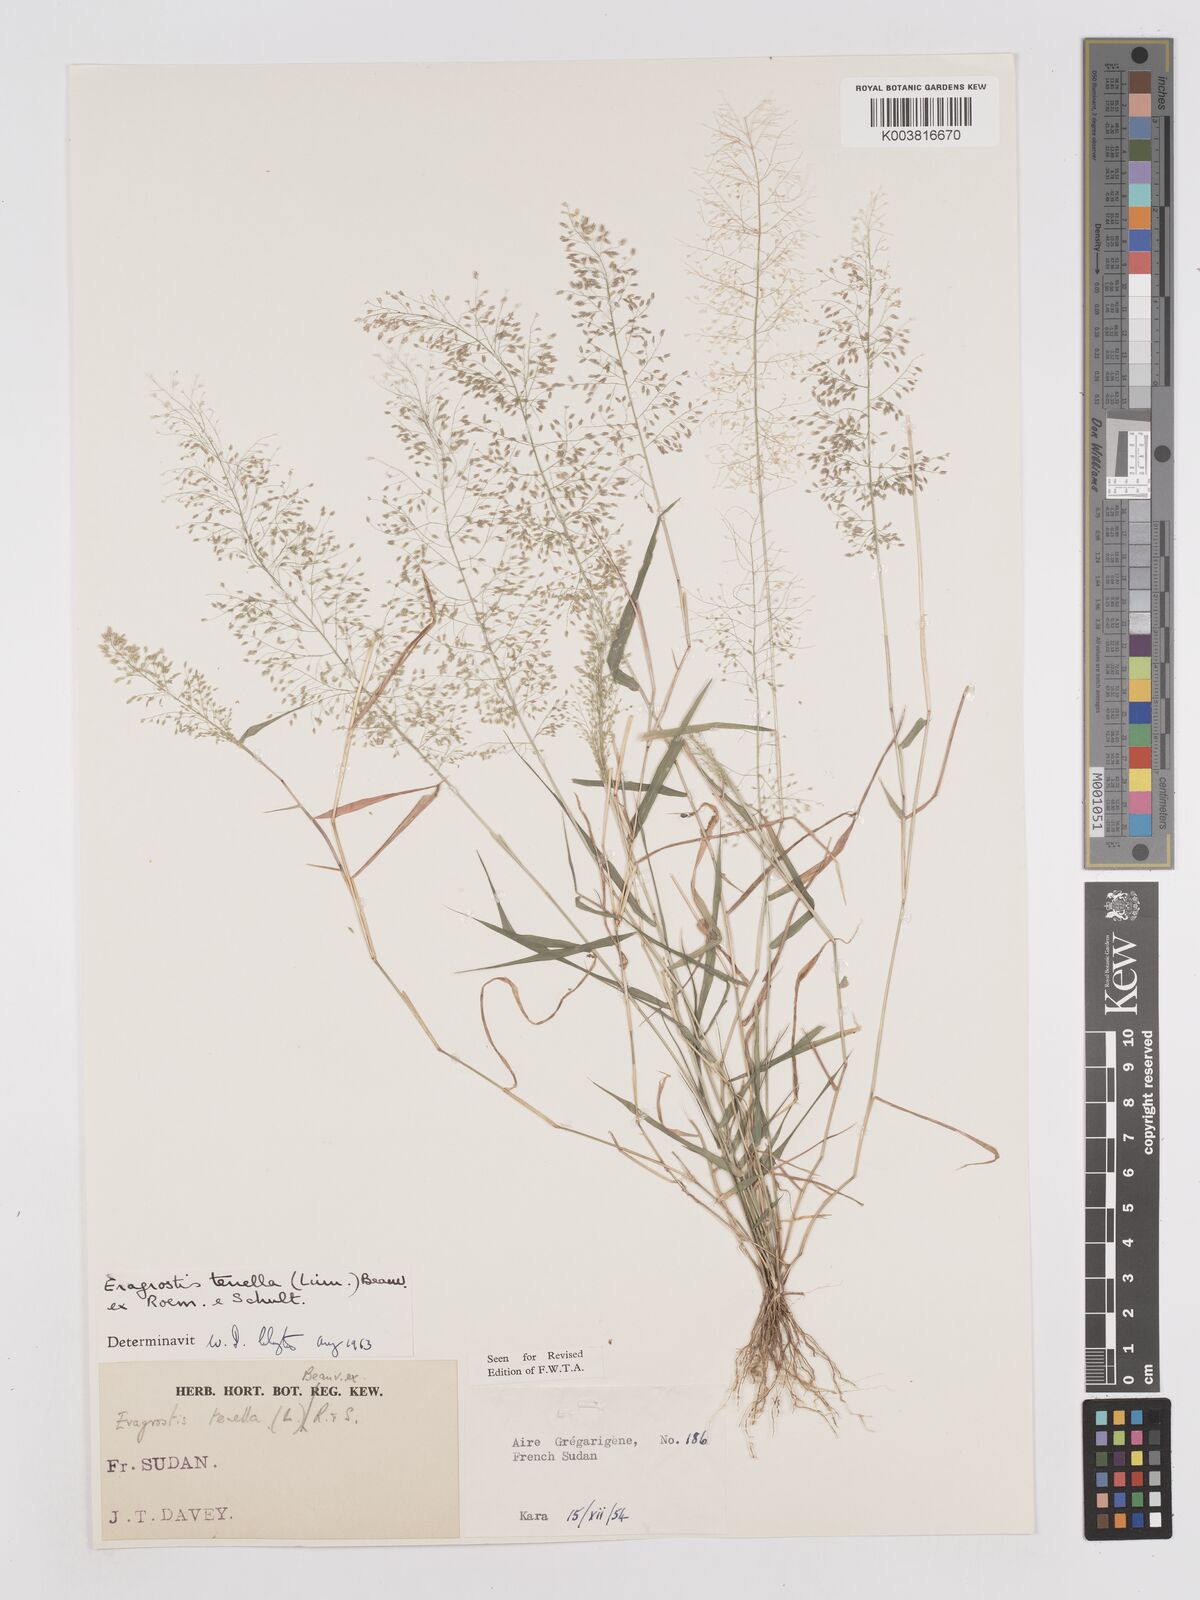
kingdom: Plantae
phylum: Tracheophyta
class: Liliopsida
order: Poales
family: Poaceae
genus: Eragrostis
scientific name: Eragrostis tenella
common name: Japanese lovegrass
